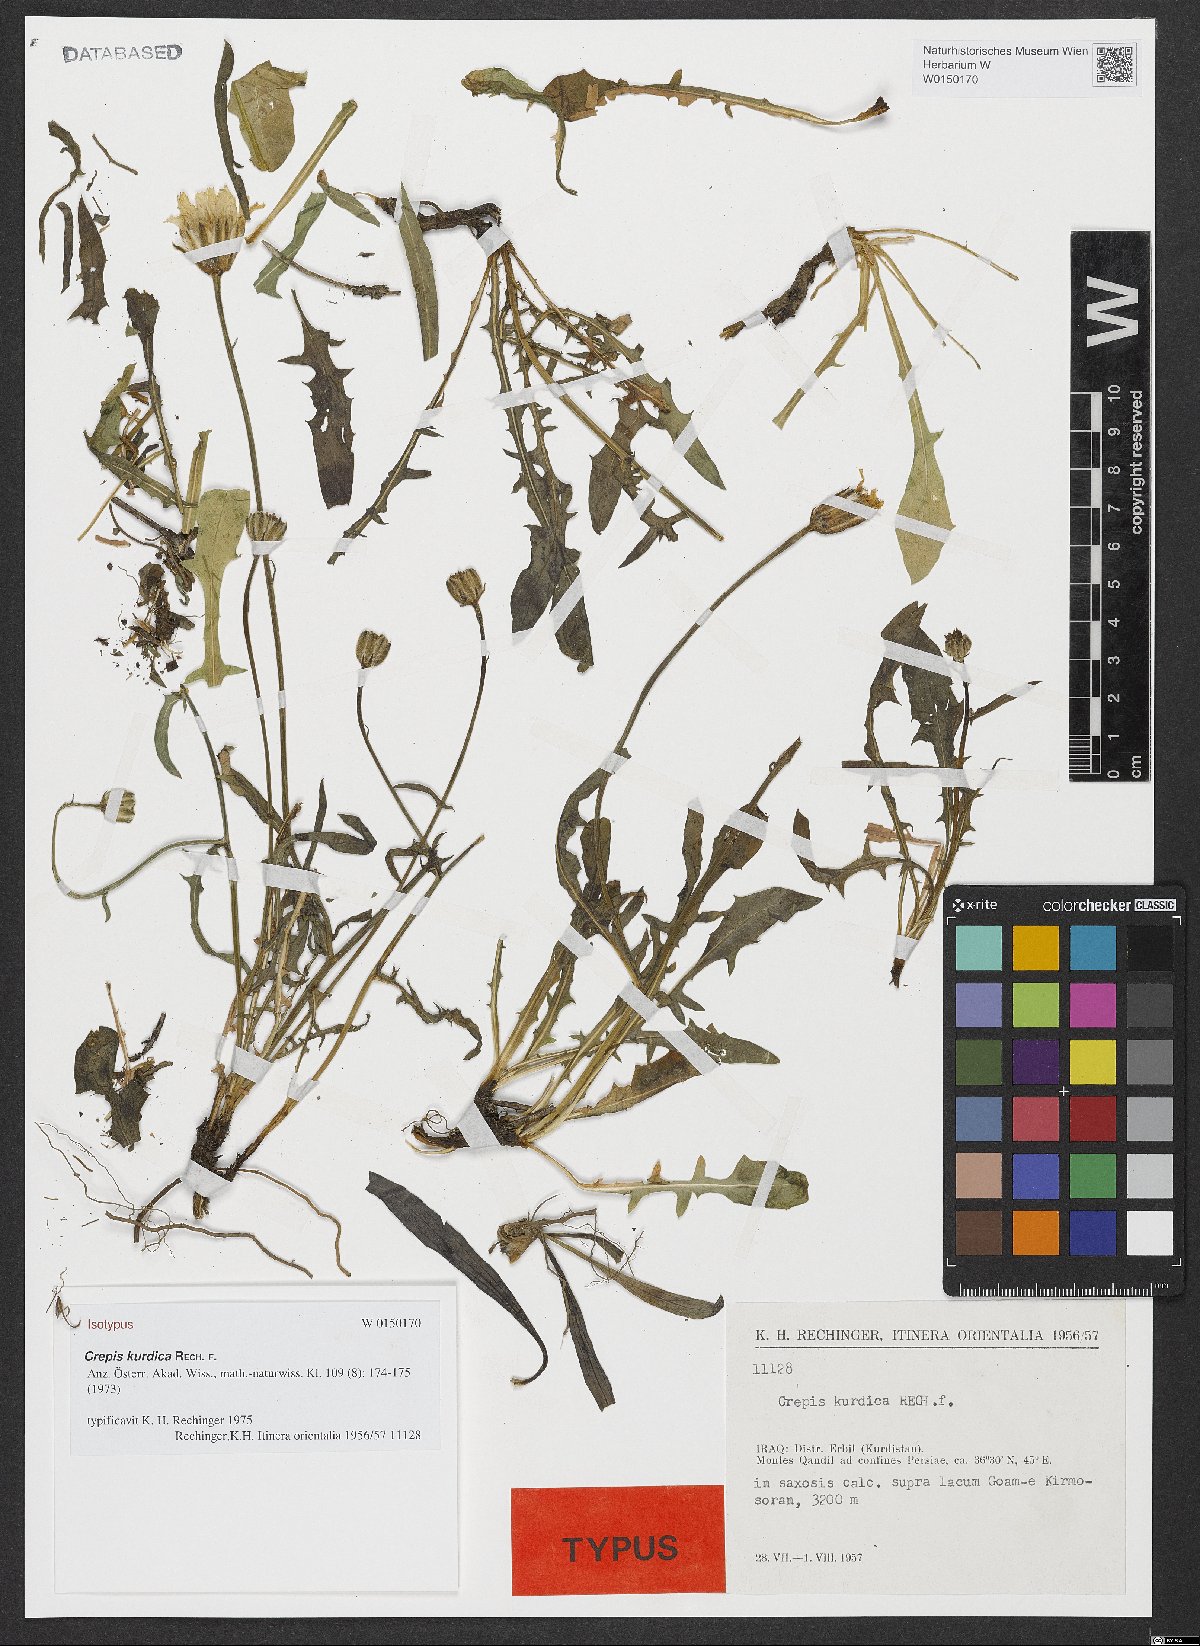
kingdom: Plantae
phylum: Tracheophyta
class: Magnoliopsida
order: Asterales
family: Asteraceae
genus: Crepis
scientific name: Crepis kurdica
